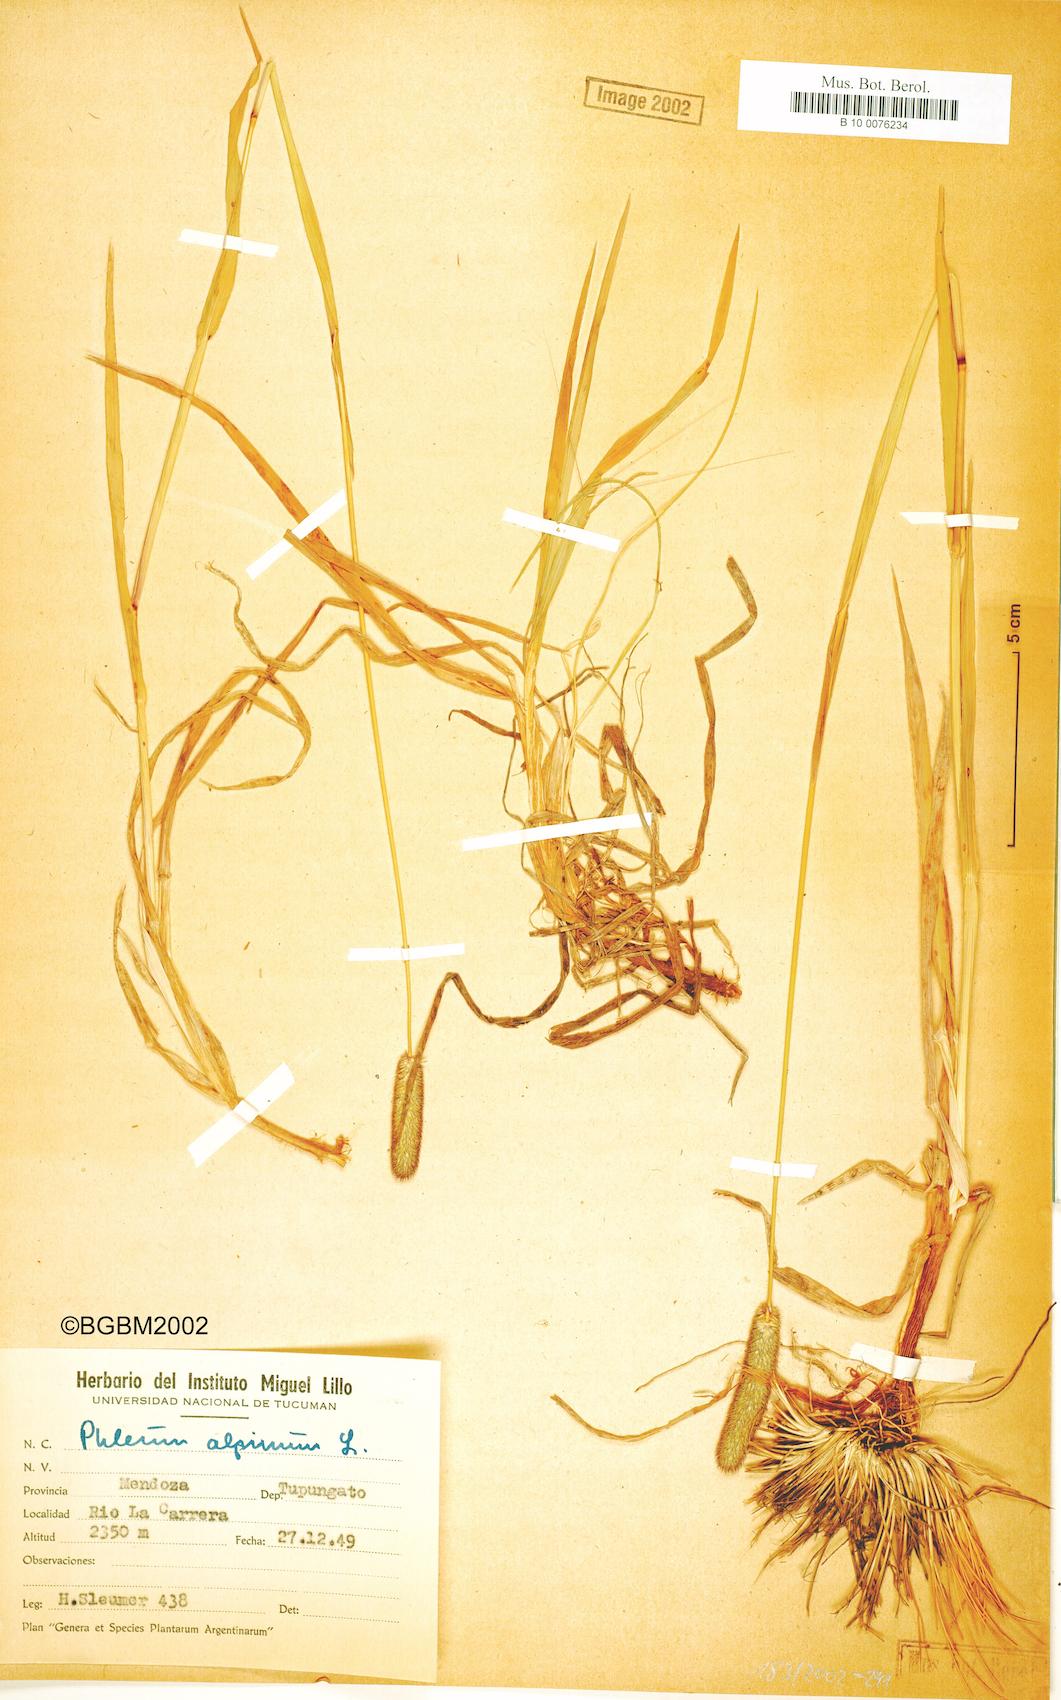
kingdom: Plantae
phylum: Tracheophyta
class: Liliopsida
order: Poales
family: Poaceae
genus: Phleum
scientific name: Phleum alpinum
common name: Alpine cat's-tail
